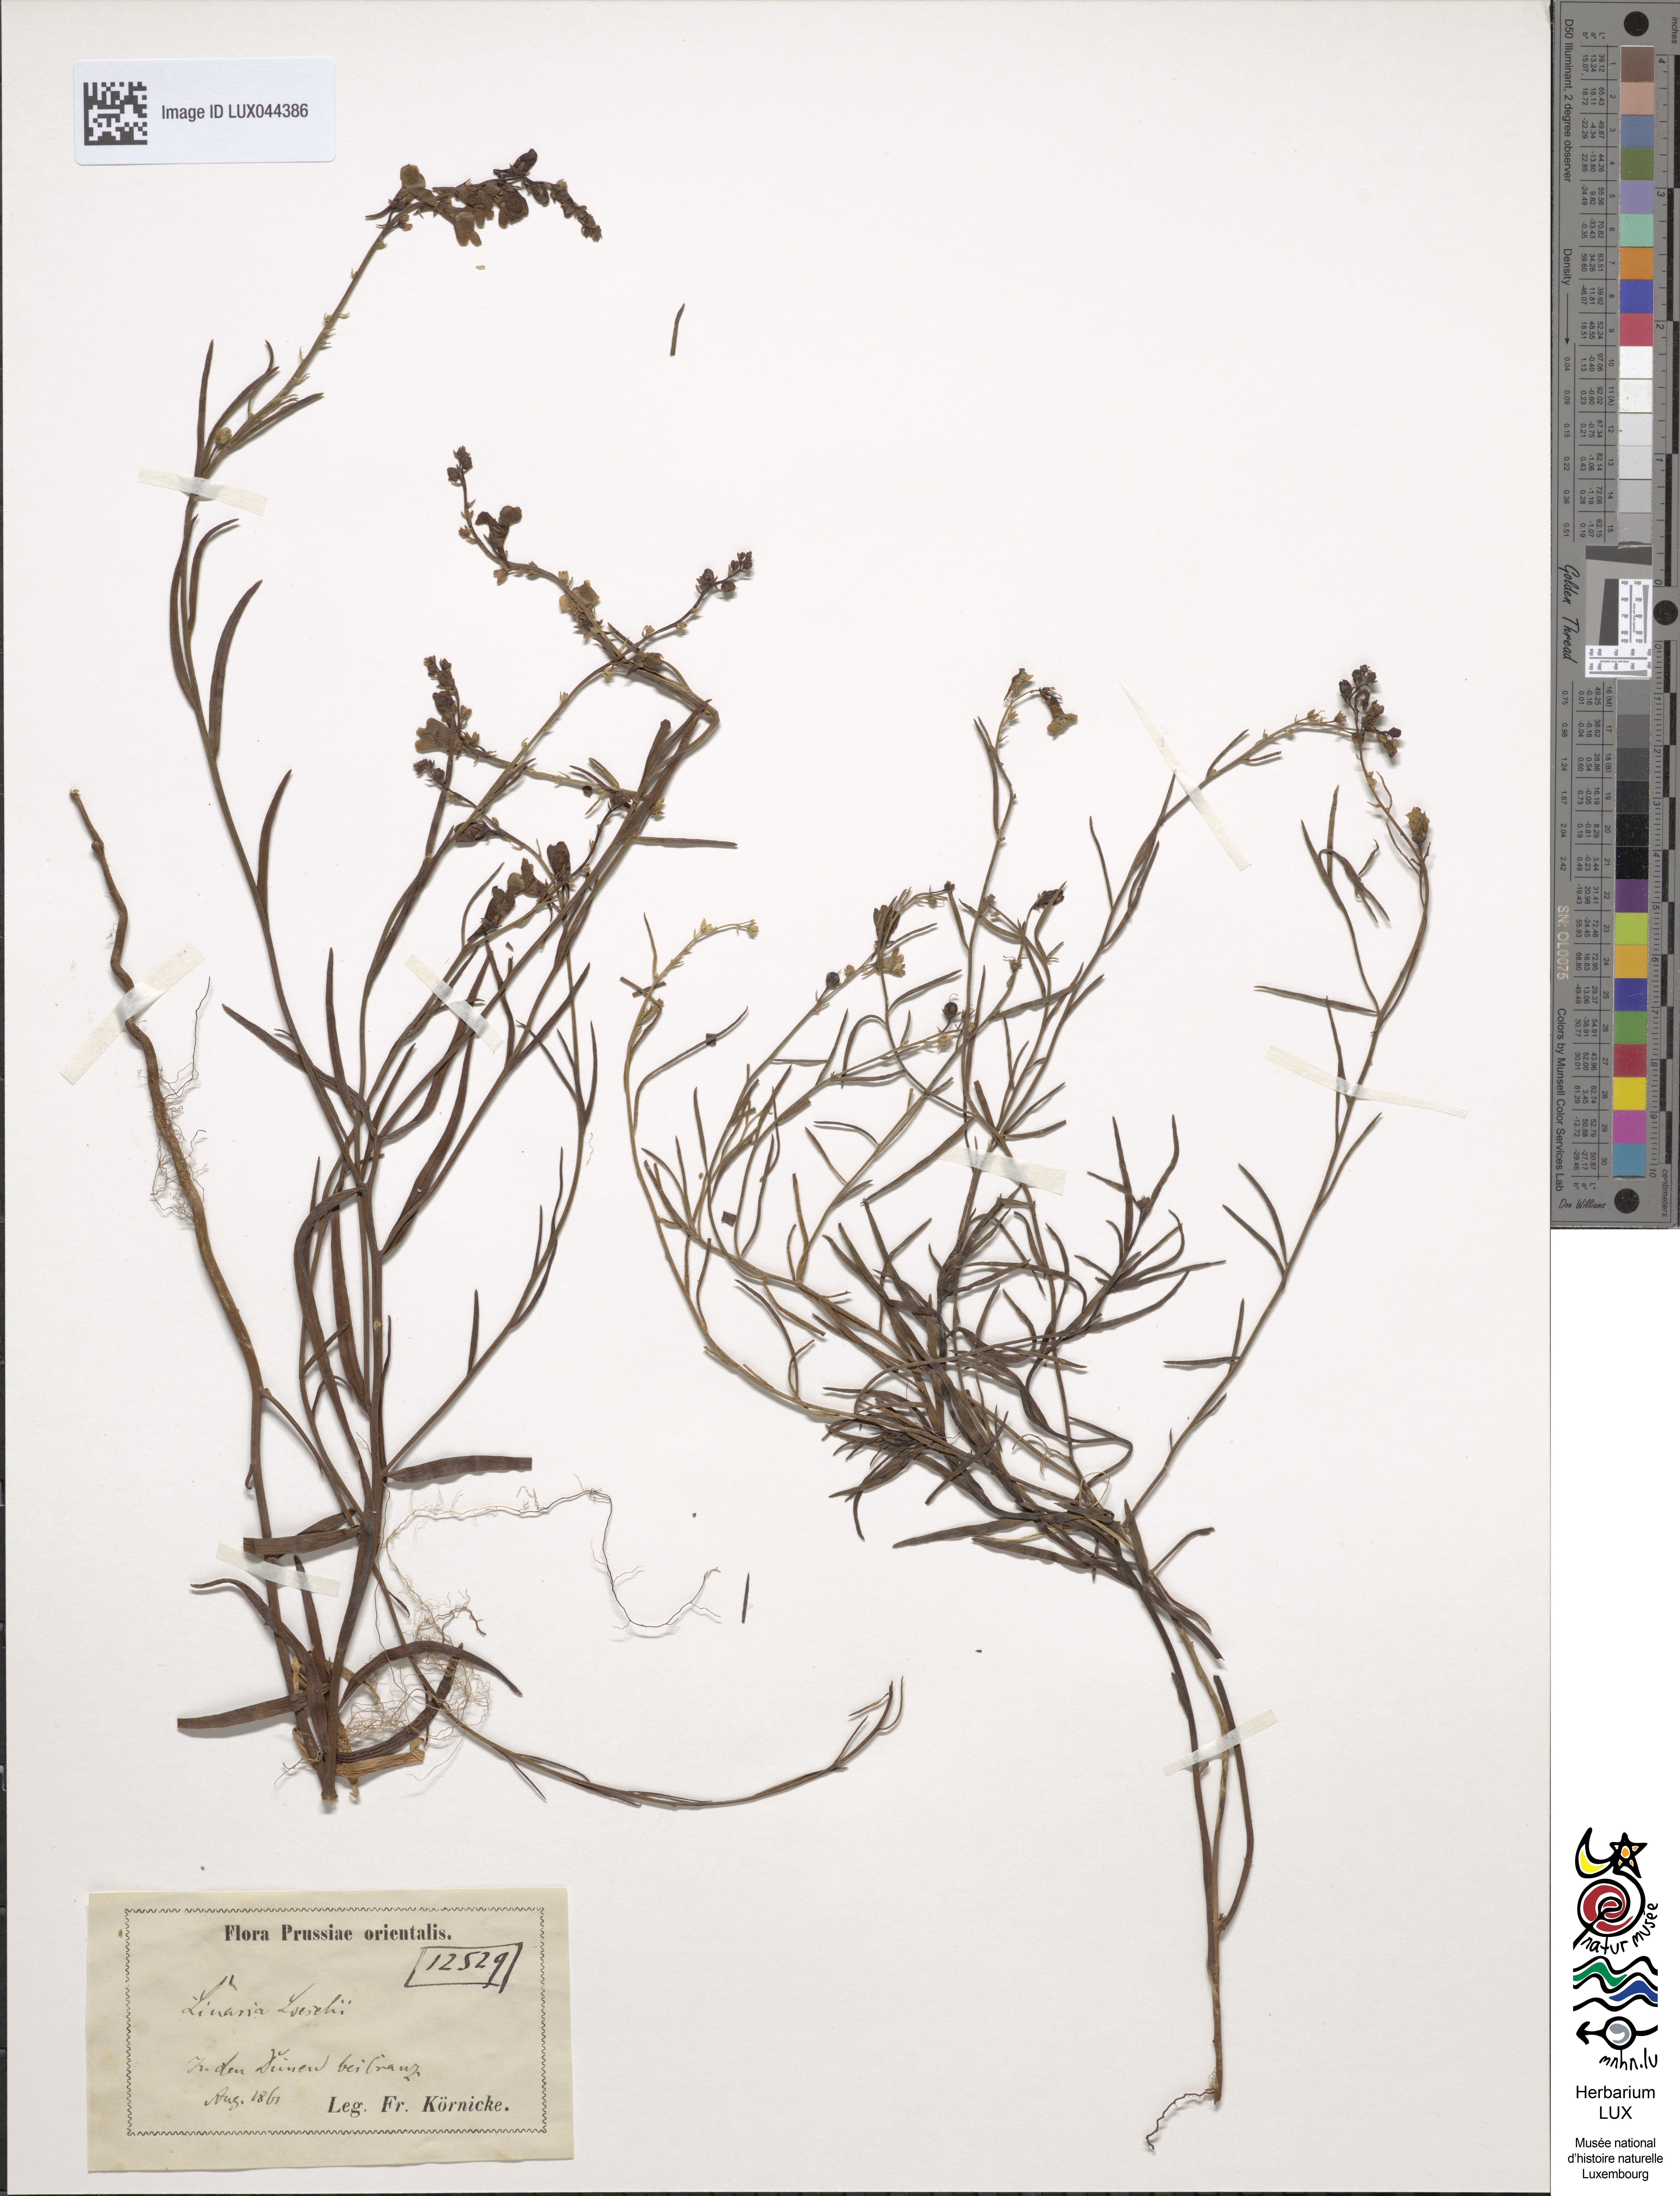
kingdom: Plantae
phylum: Tracheophyta
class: Magnoliopsida
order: Lamiales
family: Plantaginaceae
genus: Linaria
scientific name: Linaria odora
